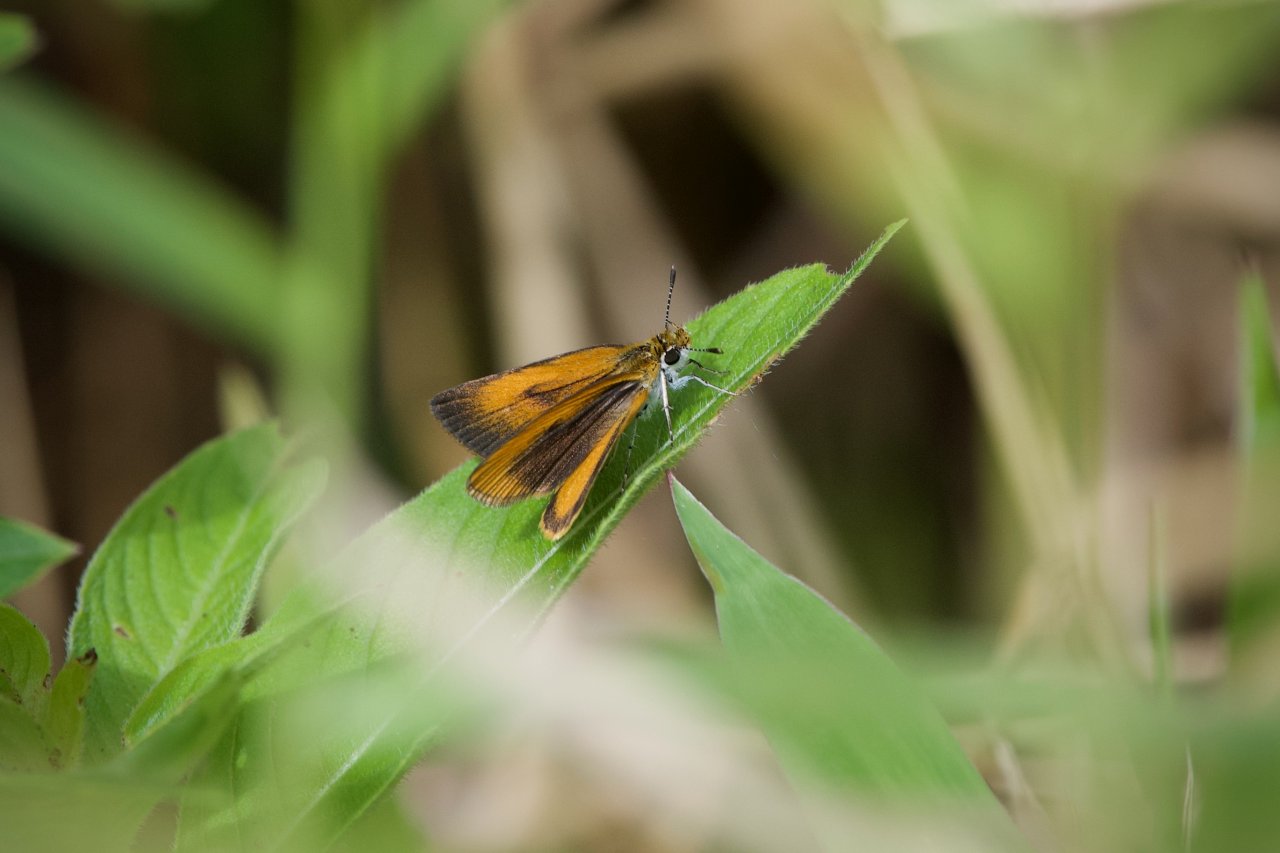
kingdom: Animalia
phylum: Arthropoda
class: Insecta
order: Lepidoptera
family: Hesperiidae
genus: Ancyloxypha
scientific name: Ancyloxypha numitor
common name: Least Skipper
